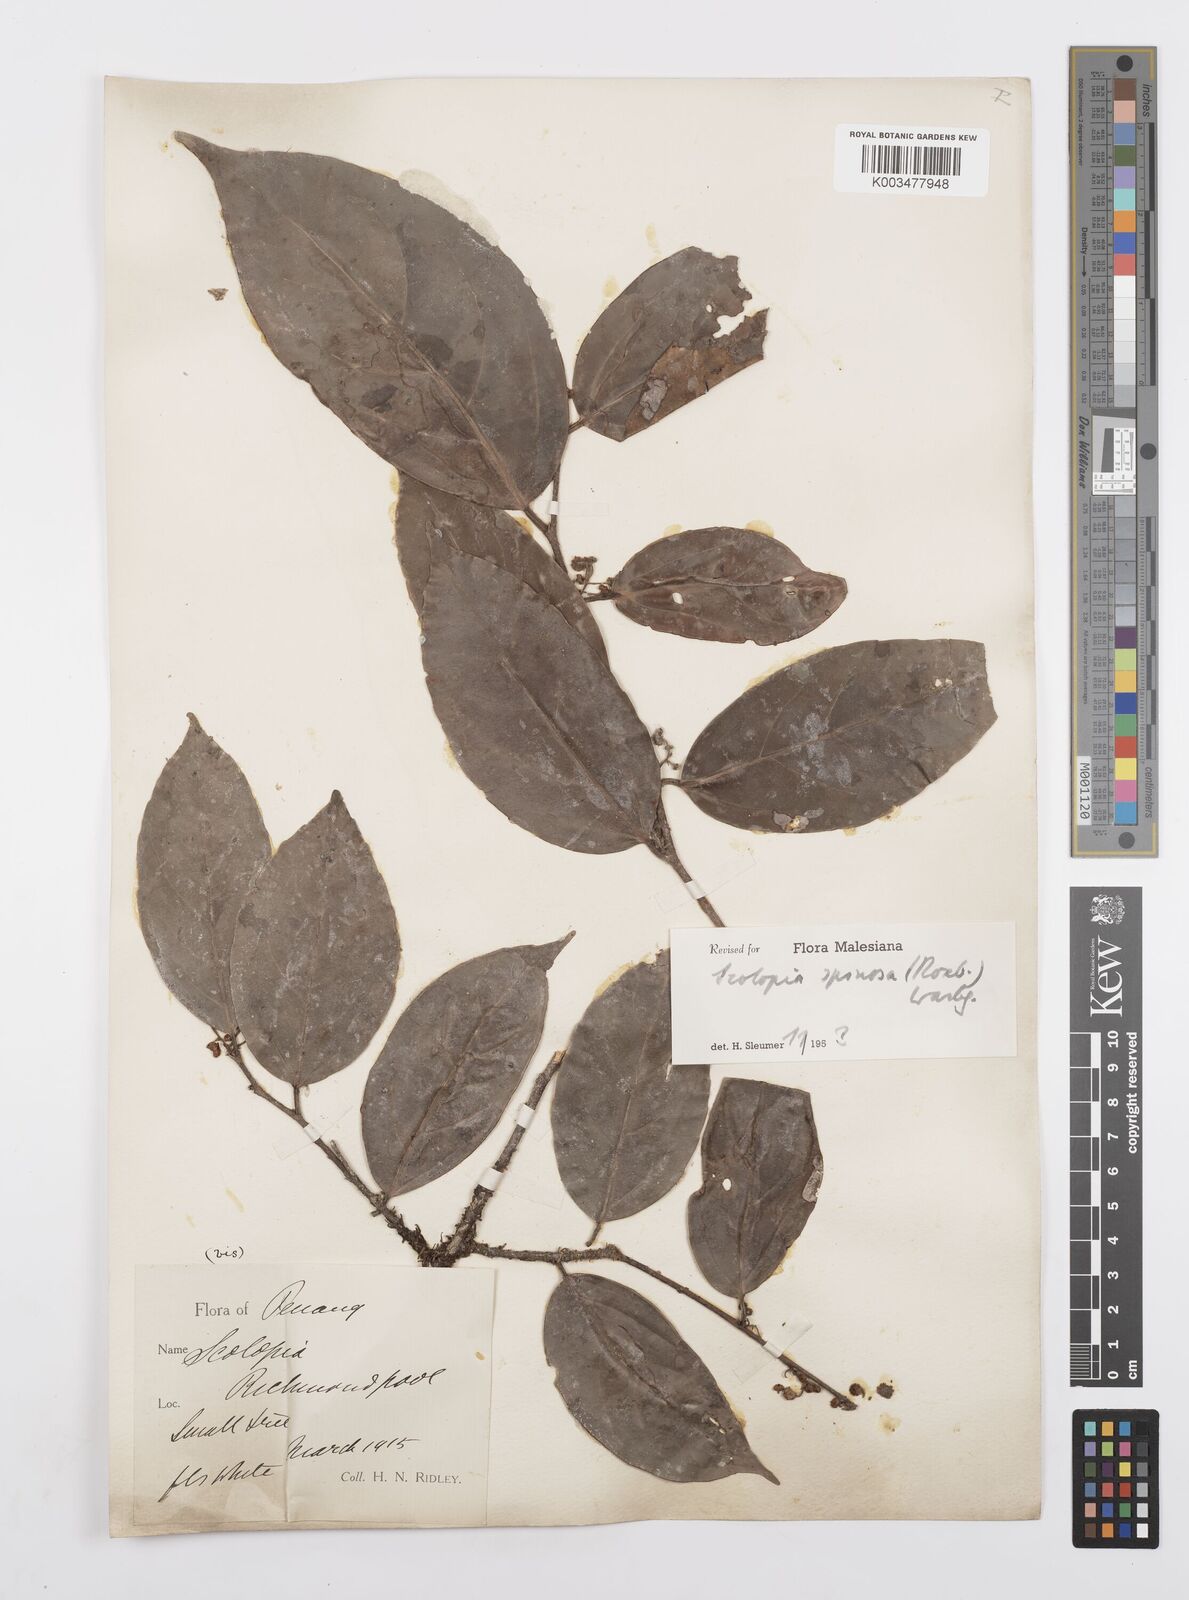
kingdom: Plantae
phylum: Tracheophyta
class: Magnoliopsida
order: Malpighiales
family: Salicaceae
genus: Scolopia
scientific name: Scolopia spinosa
